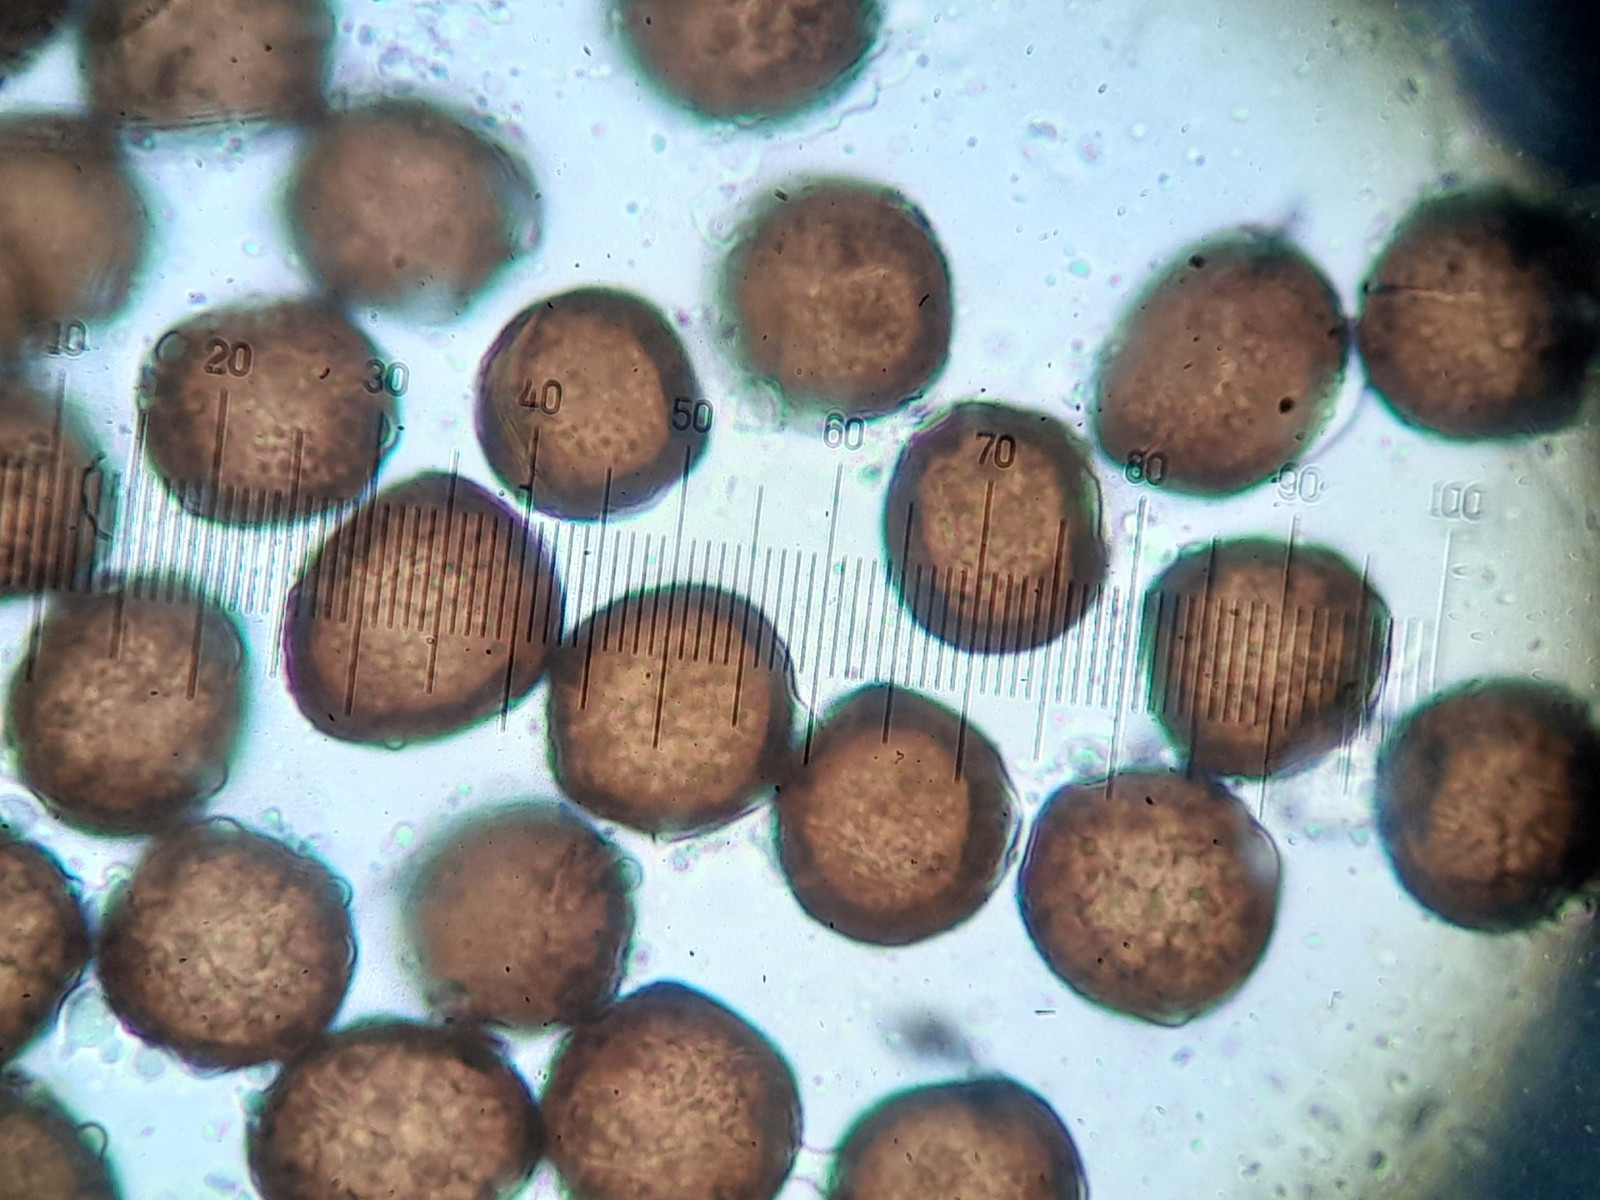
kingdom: Fungi
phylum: Basidiomycota
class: Ustilaginomycetes
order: Ustilaginales
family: Anthracoideaceae
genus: Anthracoidea
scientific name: Anthracoidea arenariae
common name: sandstar-brand
